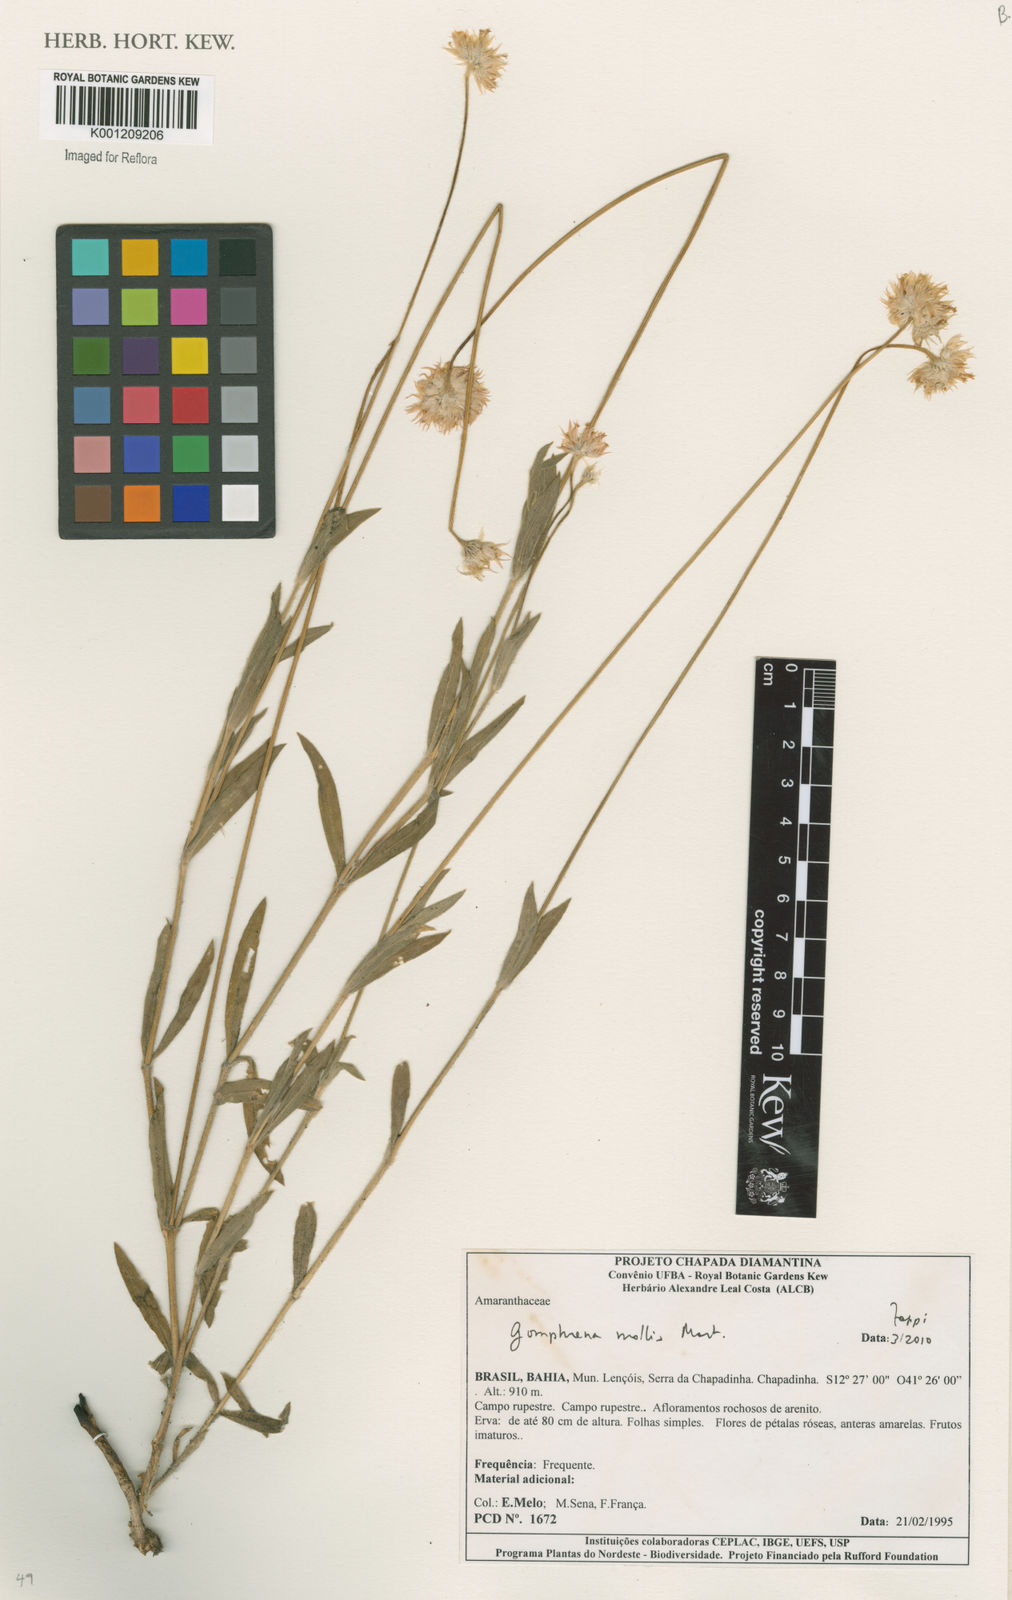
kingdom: Plantae
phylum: Tracheophyta
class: Magnoliopsida
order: Caryophyllales
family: Amaranthaceae
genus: Gomphrena
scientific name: Gomphrena mollis
